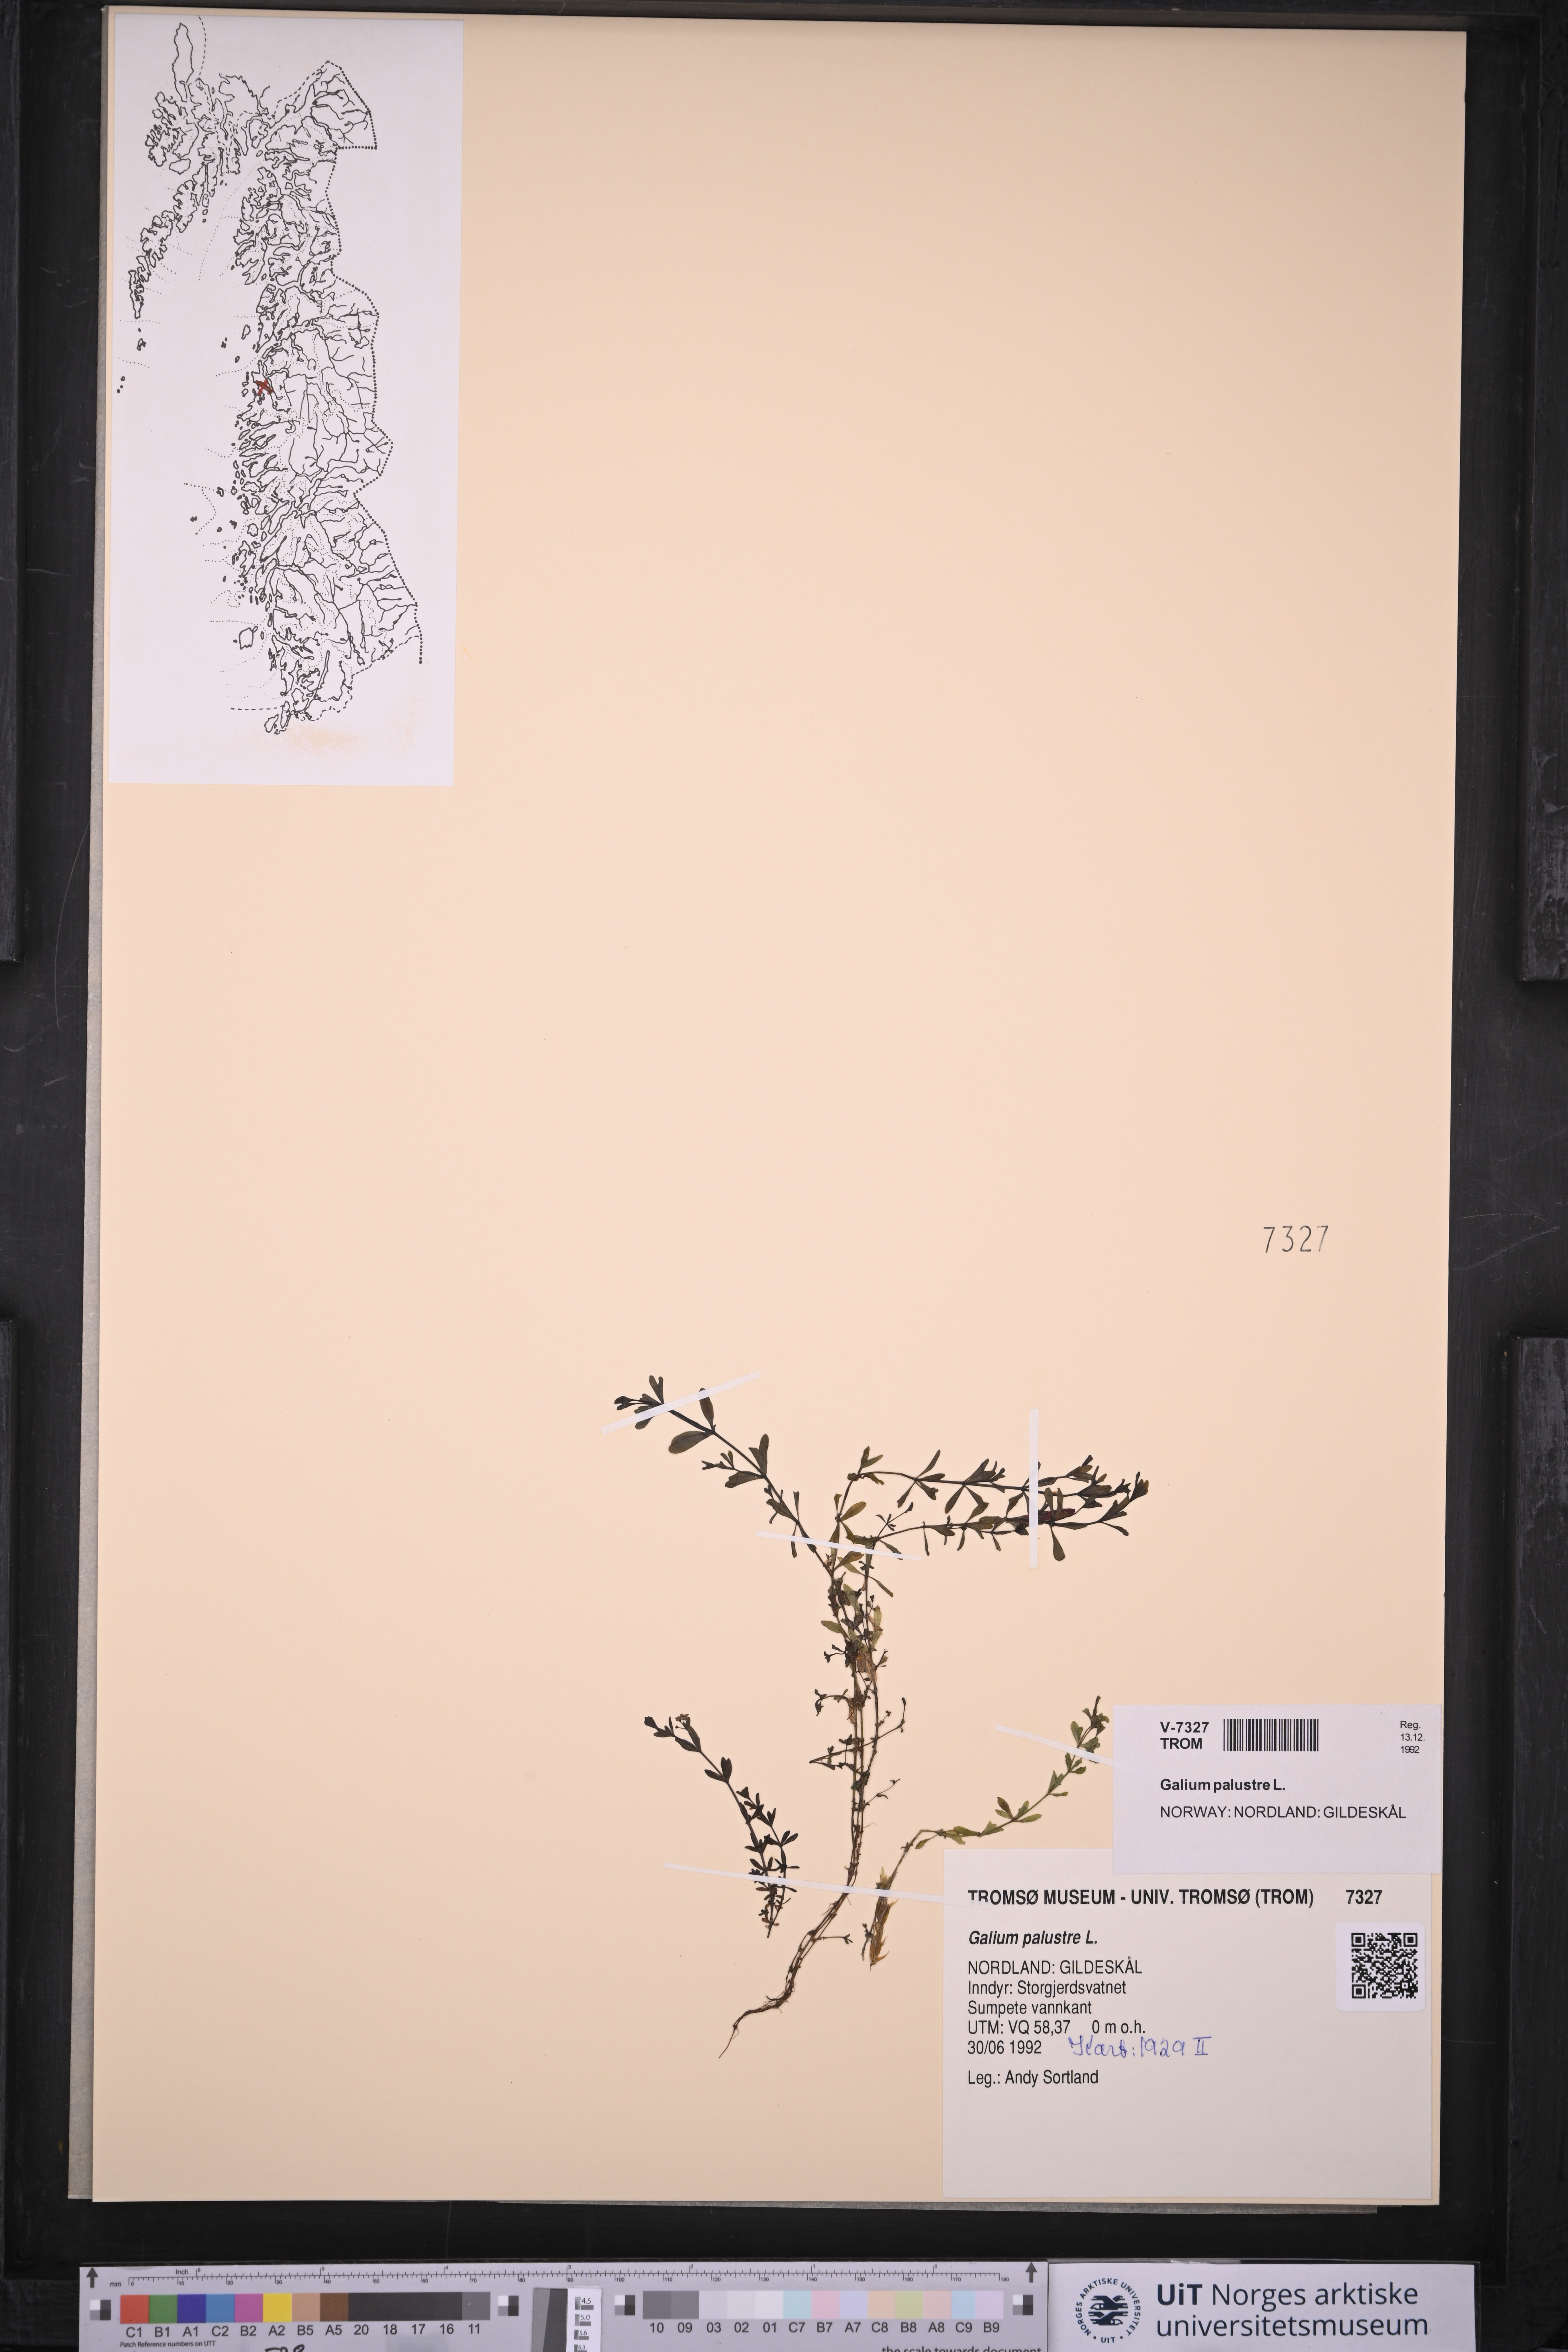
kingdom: Plantae
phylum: Tracheophyta
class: Magnoliopsida
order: Gentianales
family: Rubiaceae
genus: Galium
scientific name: Galium palustre
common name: Common marsh-bedstraw
